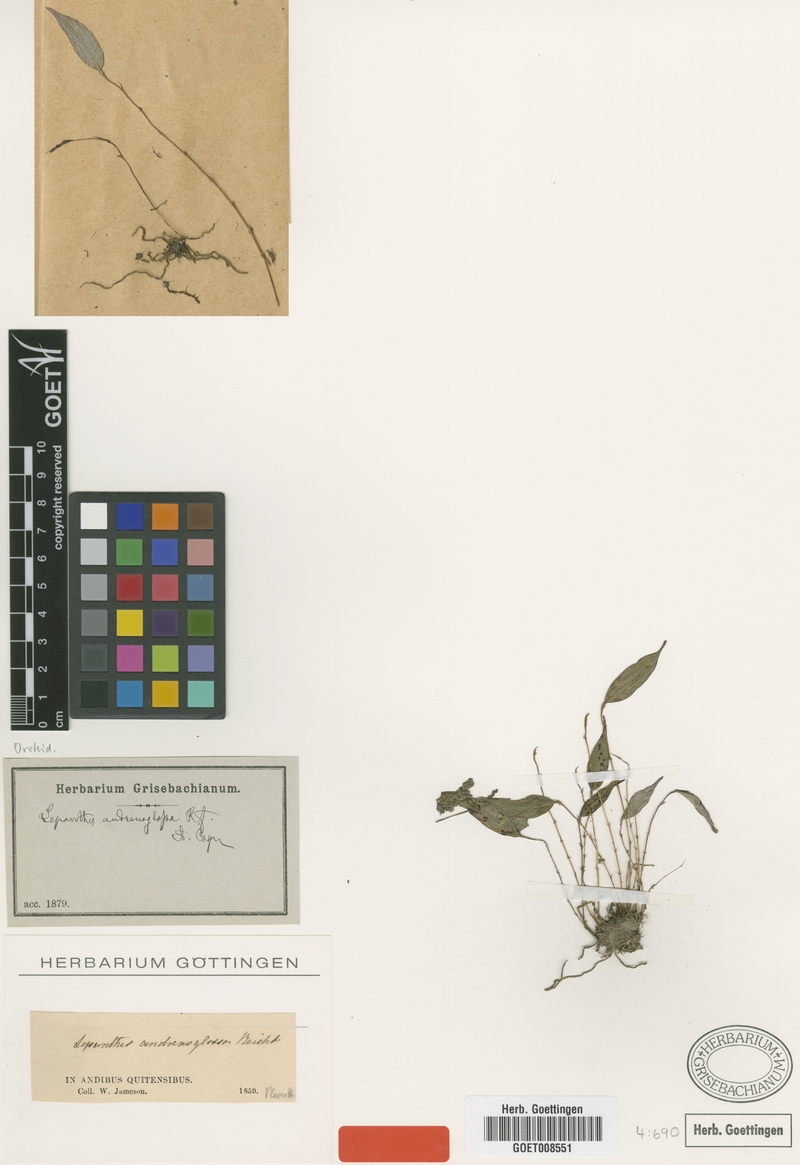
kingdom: Plantae
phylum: Tracheophyta
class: Liliopsida
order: Asparagales
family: Orchidaceae
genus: Lepanthes
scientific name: Lepanthes andrenoglossa
